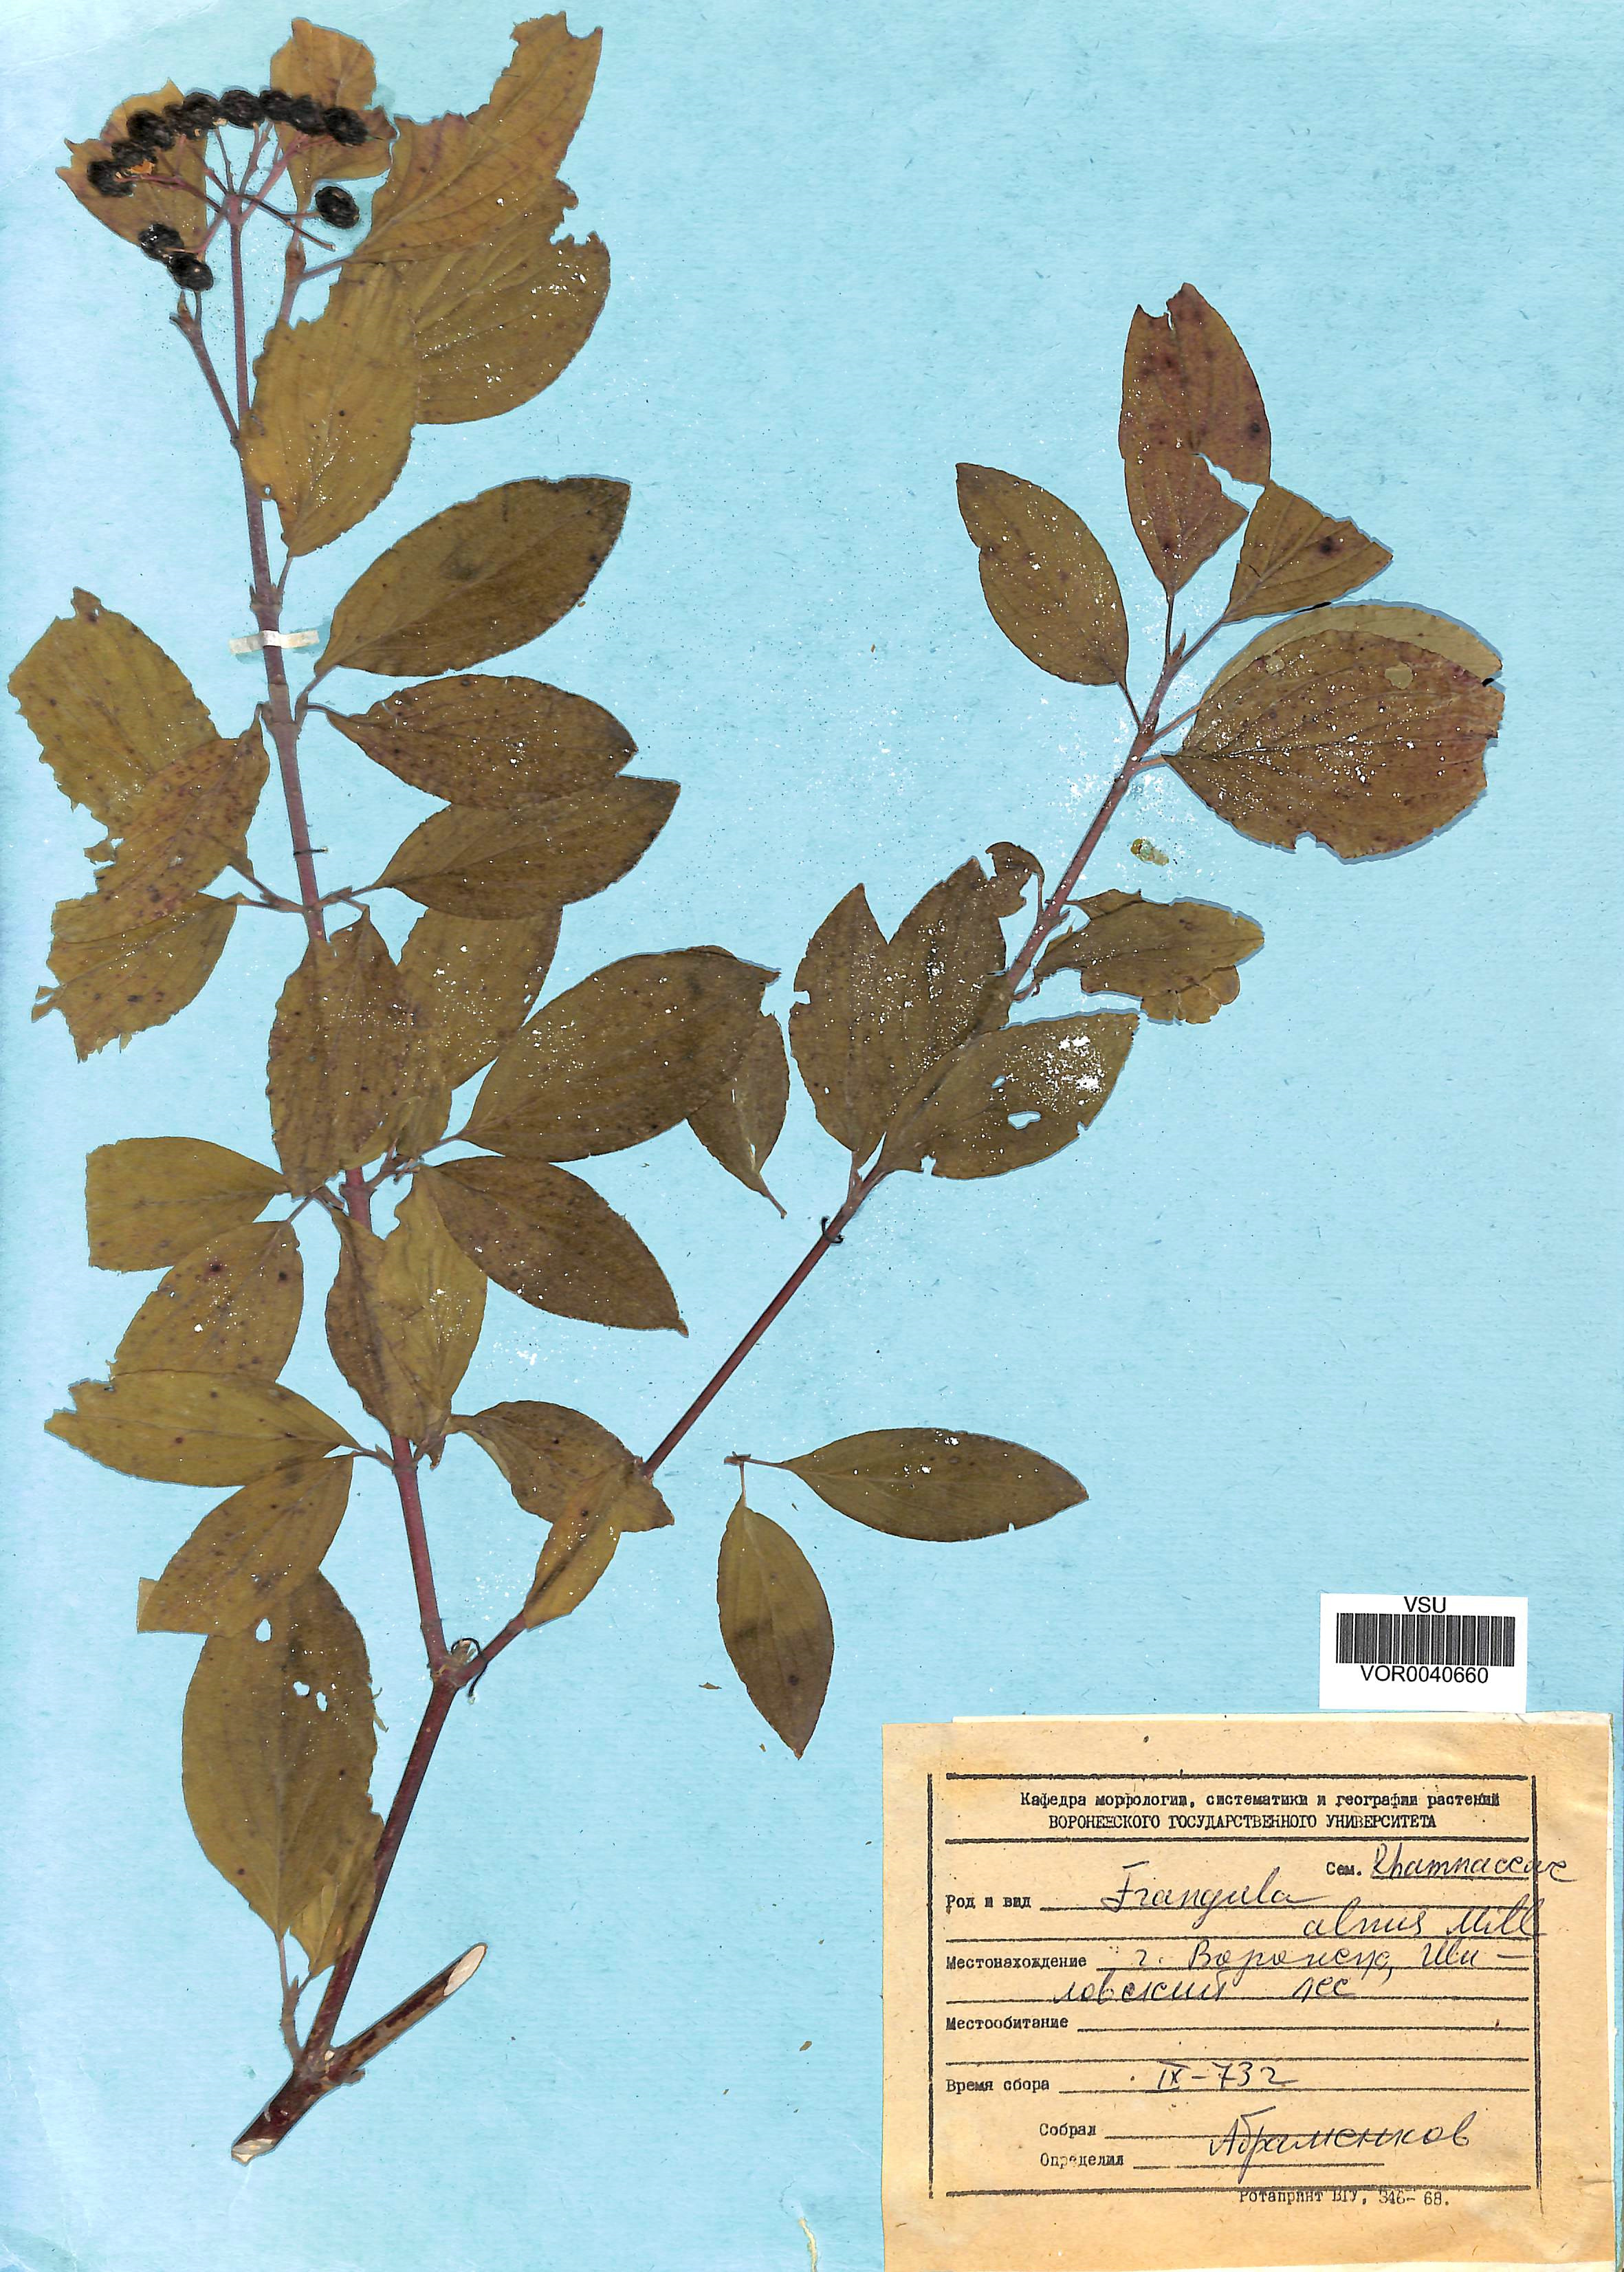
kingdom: Plantae
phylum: Tracheophyta
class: Magnoliopsida
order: Rosales
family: Rhamnaceae
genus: Frangula
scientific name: Frangula alnus
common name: Alder buckthorn
